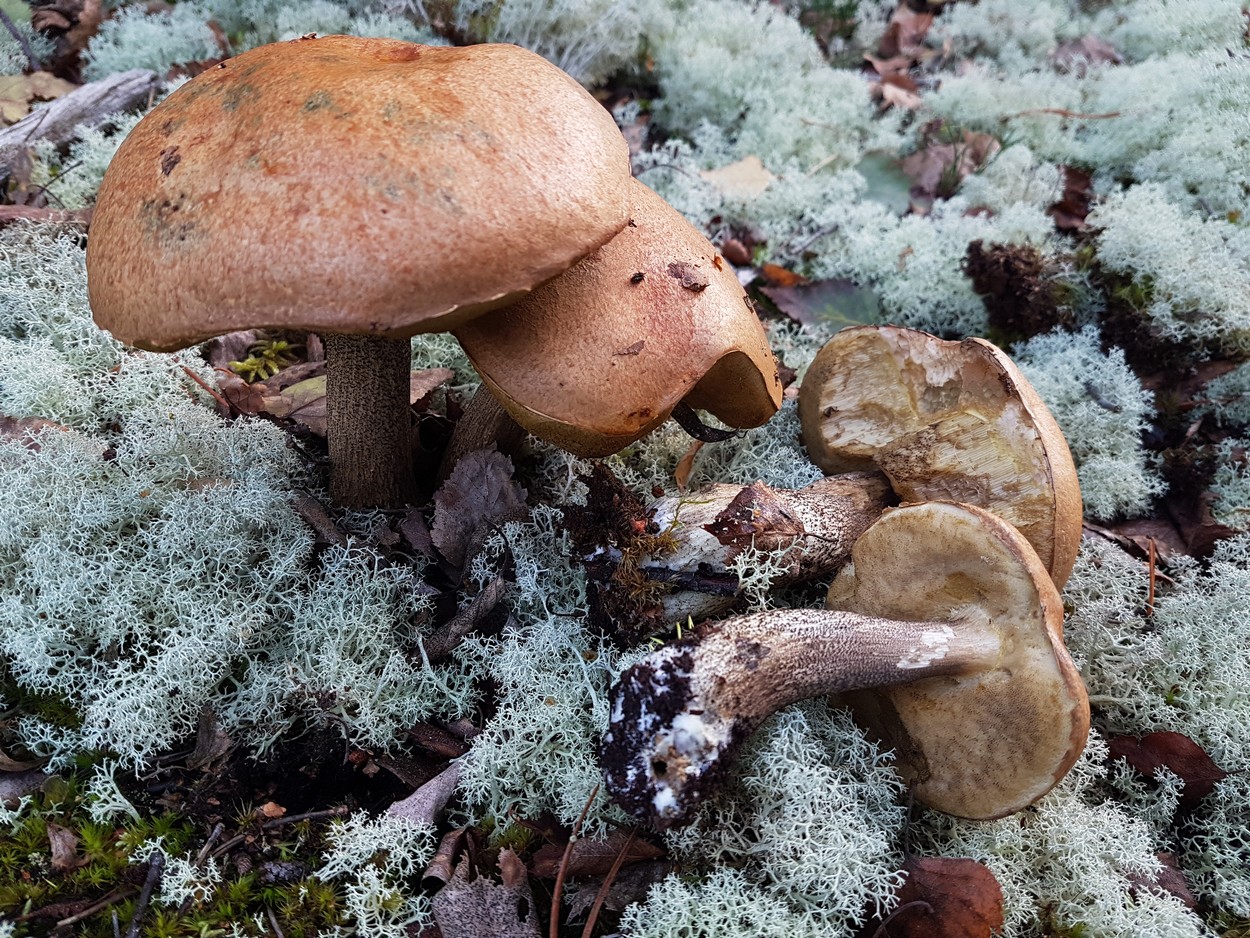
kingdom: Fungi
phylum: Basidiomycota
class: Agaricomycetes
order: Boletales
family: Boletaceae
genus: Leccinum
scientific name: Leccinum versipelle
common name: orange skælrørhat
